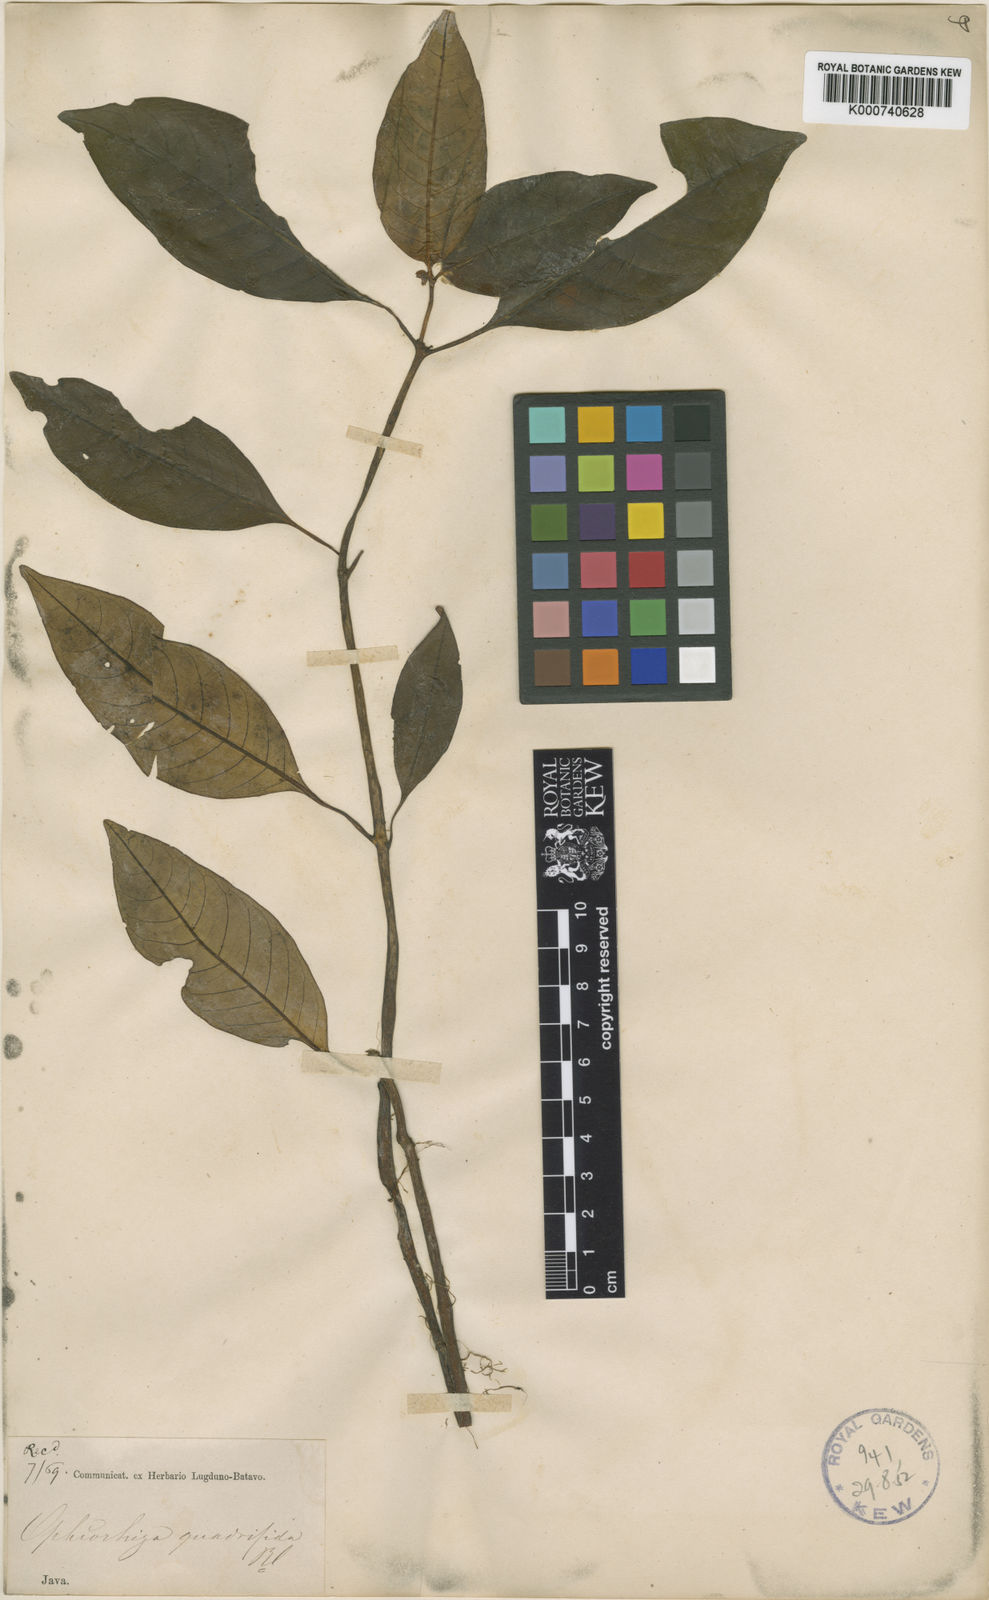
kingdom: Plantae
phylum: Tracheophyta
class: Magnoliopsida
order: Gentianales
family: Rubiaceae
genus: Ophiorrhiza
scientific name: Ophiorrhiza quadrifida
